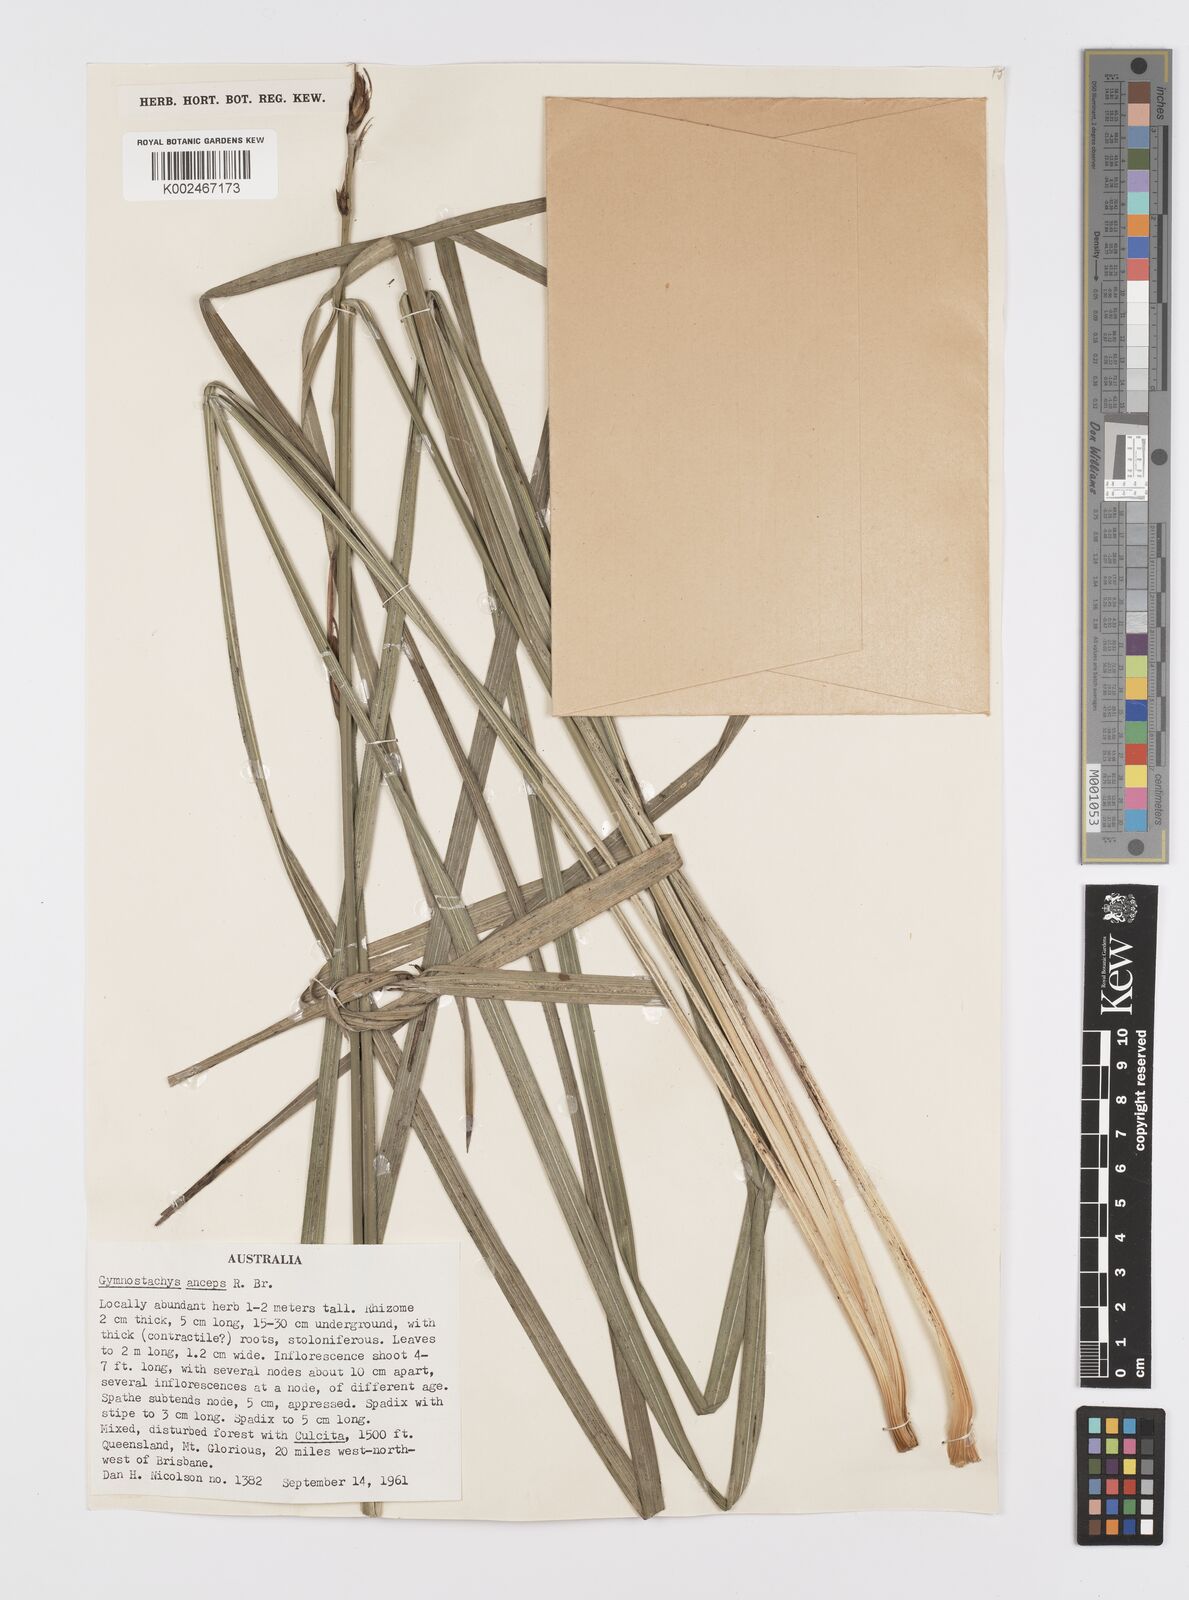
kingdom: Plantae
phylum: Tracheophyta
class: Liliopsida
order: Alismatales
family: Araceae
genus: Gymnostachys
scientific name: Gymnostachys anceps
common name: Settler's-flax
